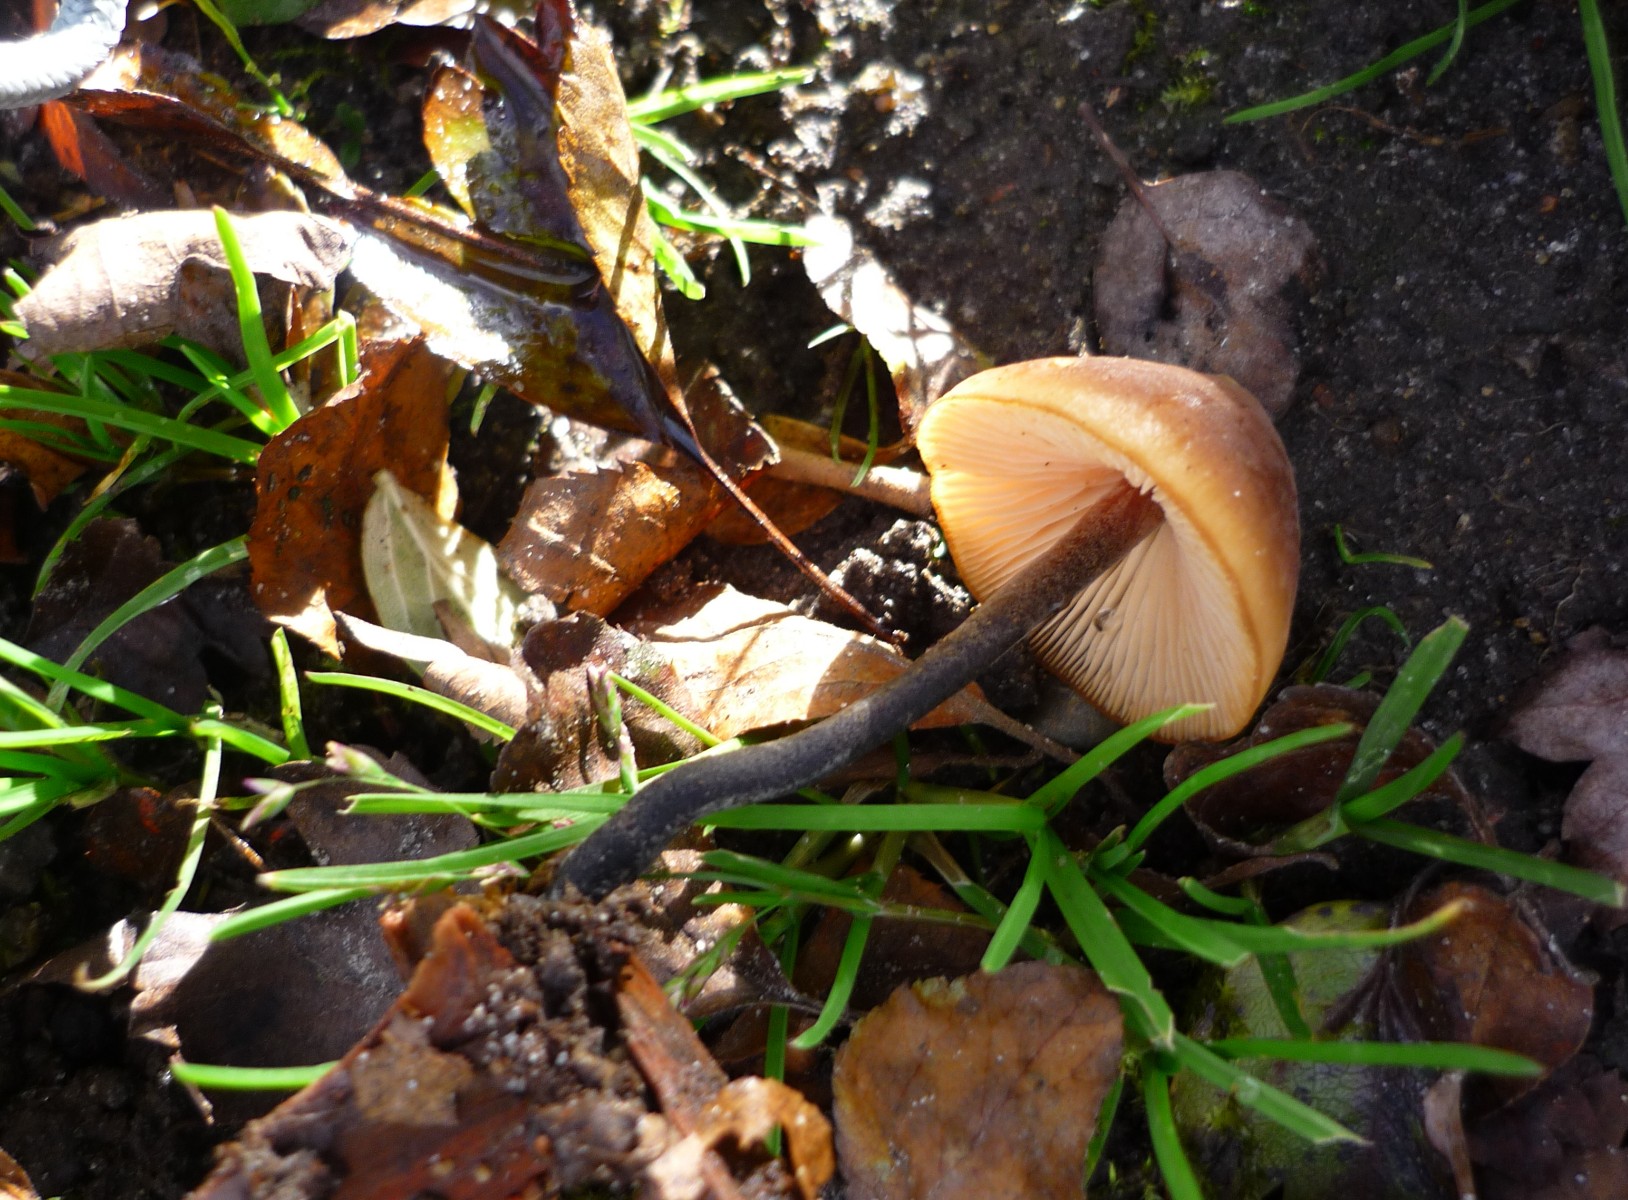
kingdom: Fungi
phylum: Basidiomycota
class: Agaricomycetes
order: Agaricales
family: Macrocystidiaceae
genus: Macrocystidia
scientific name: Macrocystidia cucumis
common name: agurkehat
